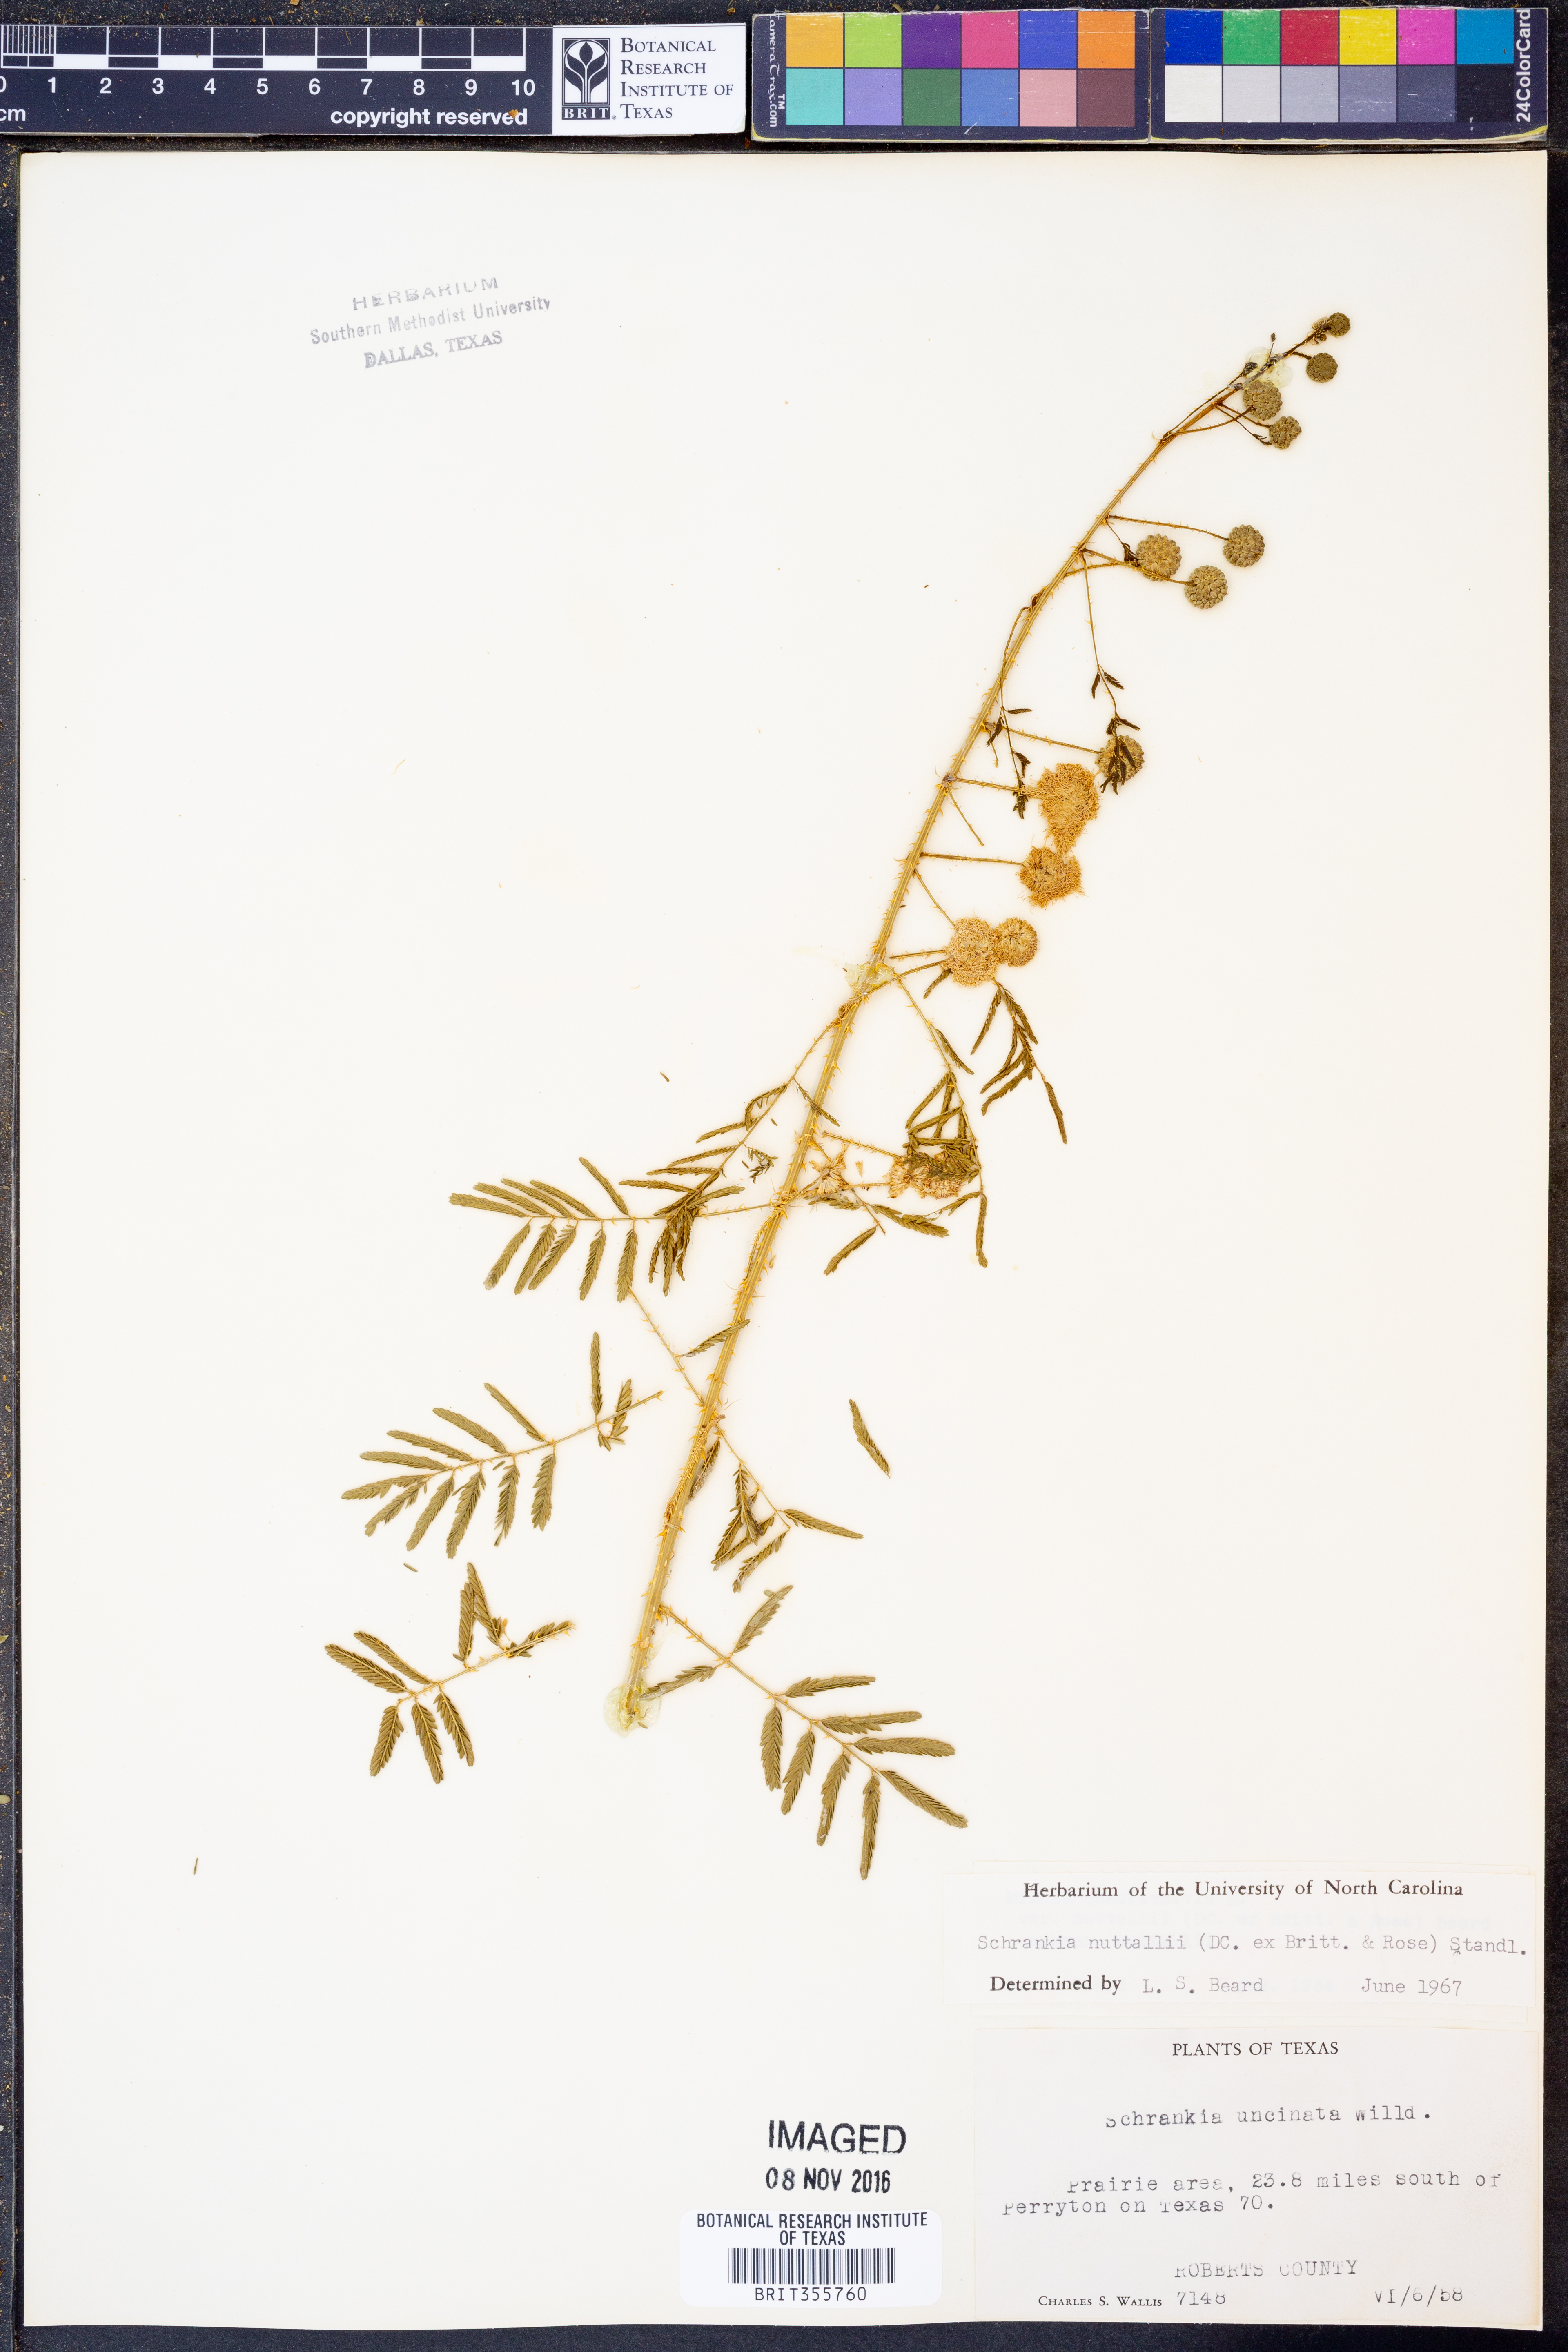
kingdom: Plantae
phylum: Tracheophyta
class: Magnoliopsida
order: Fabales
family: Fabaceae
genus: Mimosa
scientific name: Mimosa quadrivalvis
